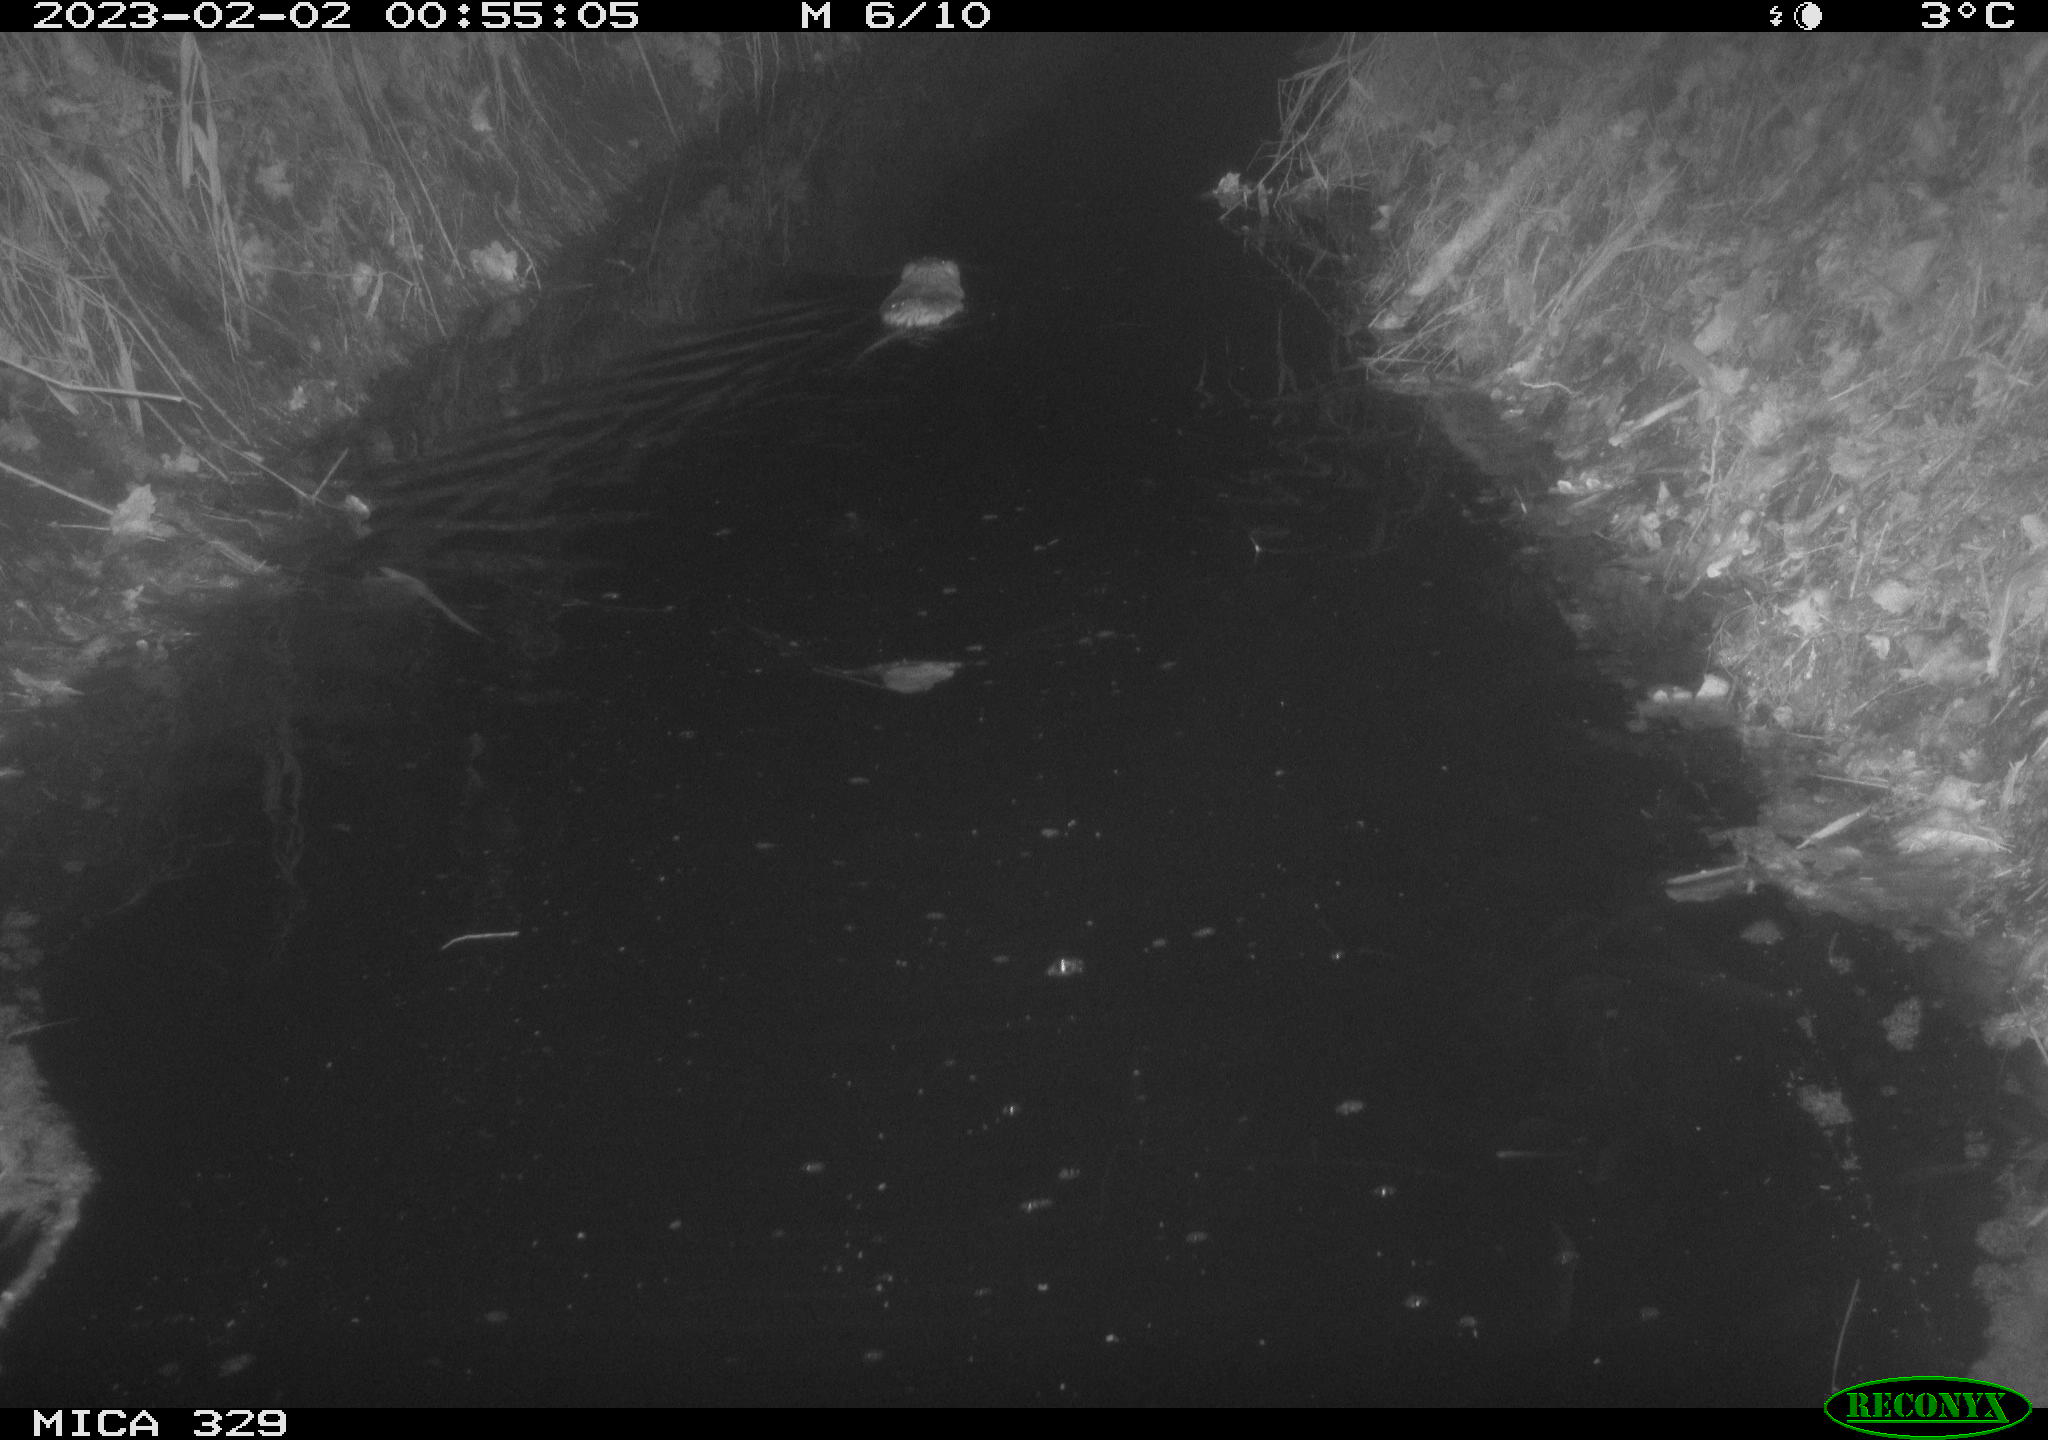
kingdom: Animalia
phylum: Chordata
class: Mammalia
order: Rodentia
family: Cricetidae
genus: Ondatra
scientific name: Ondatra zibethicus
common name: Muskrat
